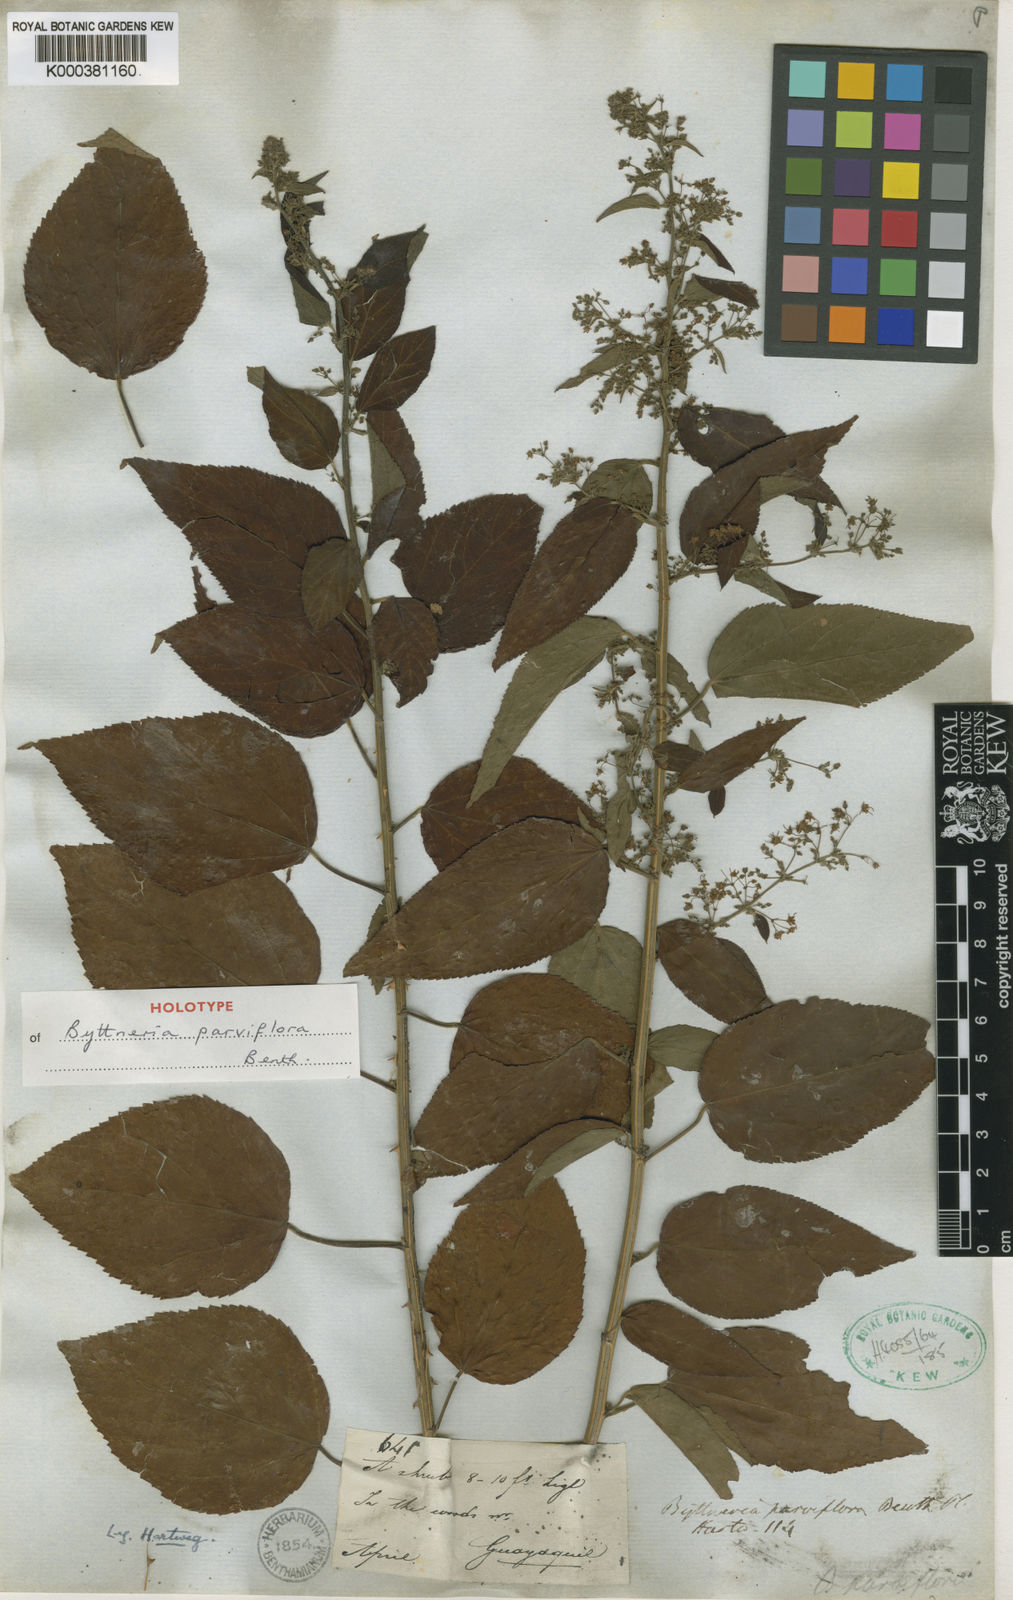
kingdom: Plantae
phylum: Tracheophyta
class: Magnoliopsida
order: Malvales
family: Malvaceae
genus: Byttneria
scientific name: Byttneria corchorifolia
